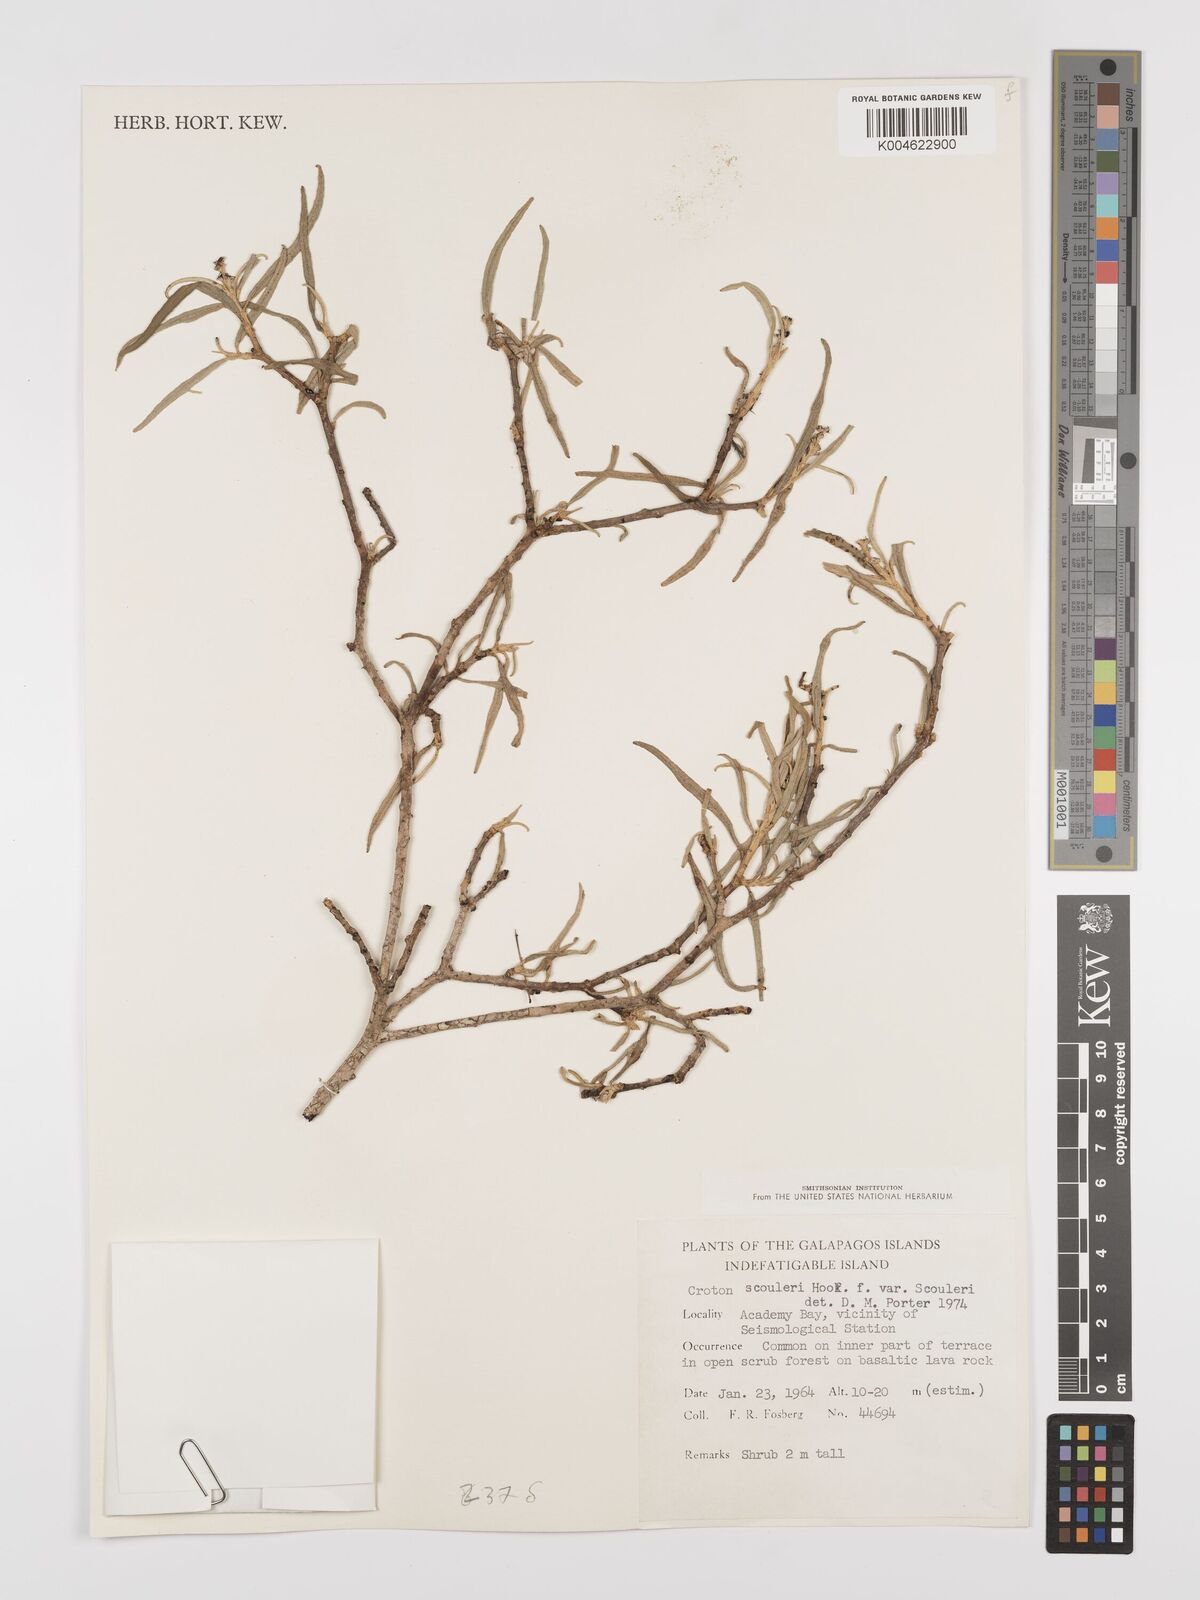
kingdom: Plantae
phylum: Tracheophyta
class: Magnoliopsida
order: Malpighiales
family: Euphorbiaceae
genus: Croton
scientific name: Croton scouleri
